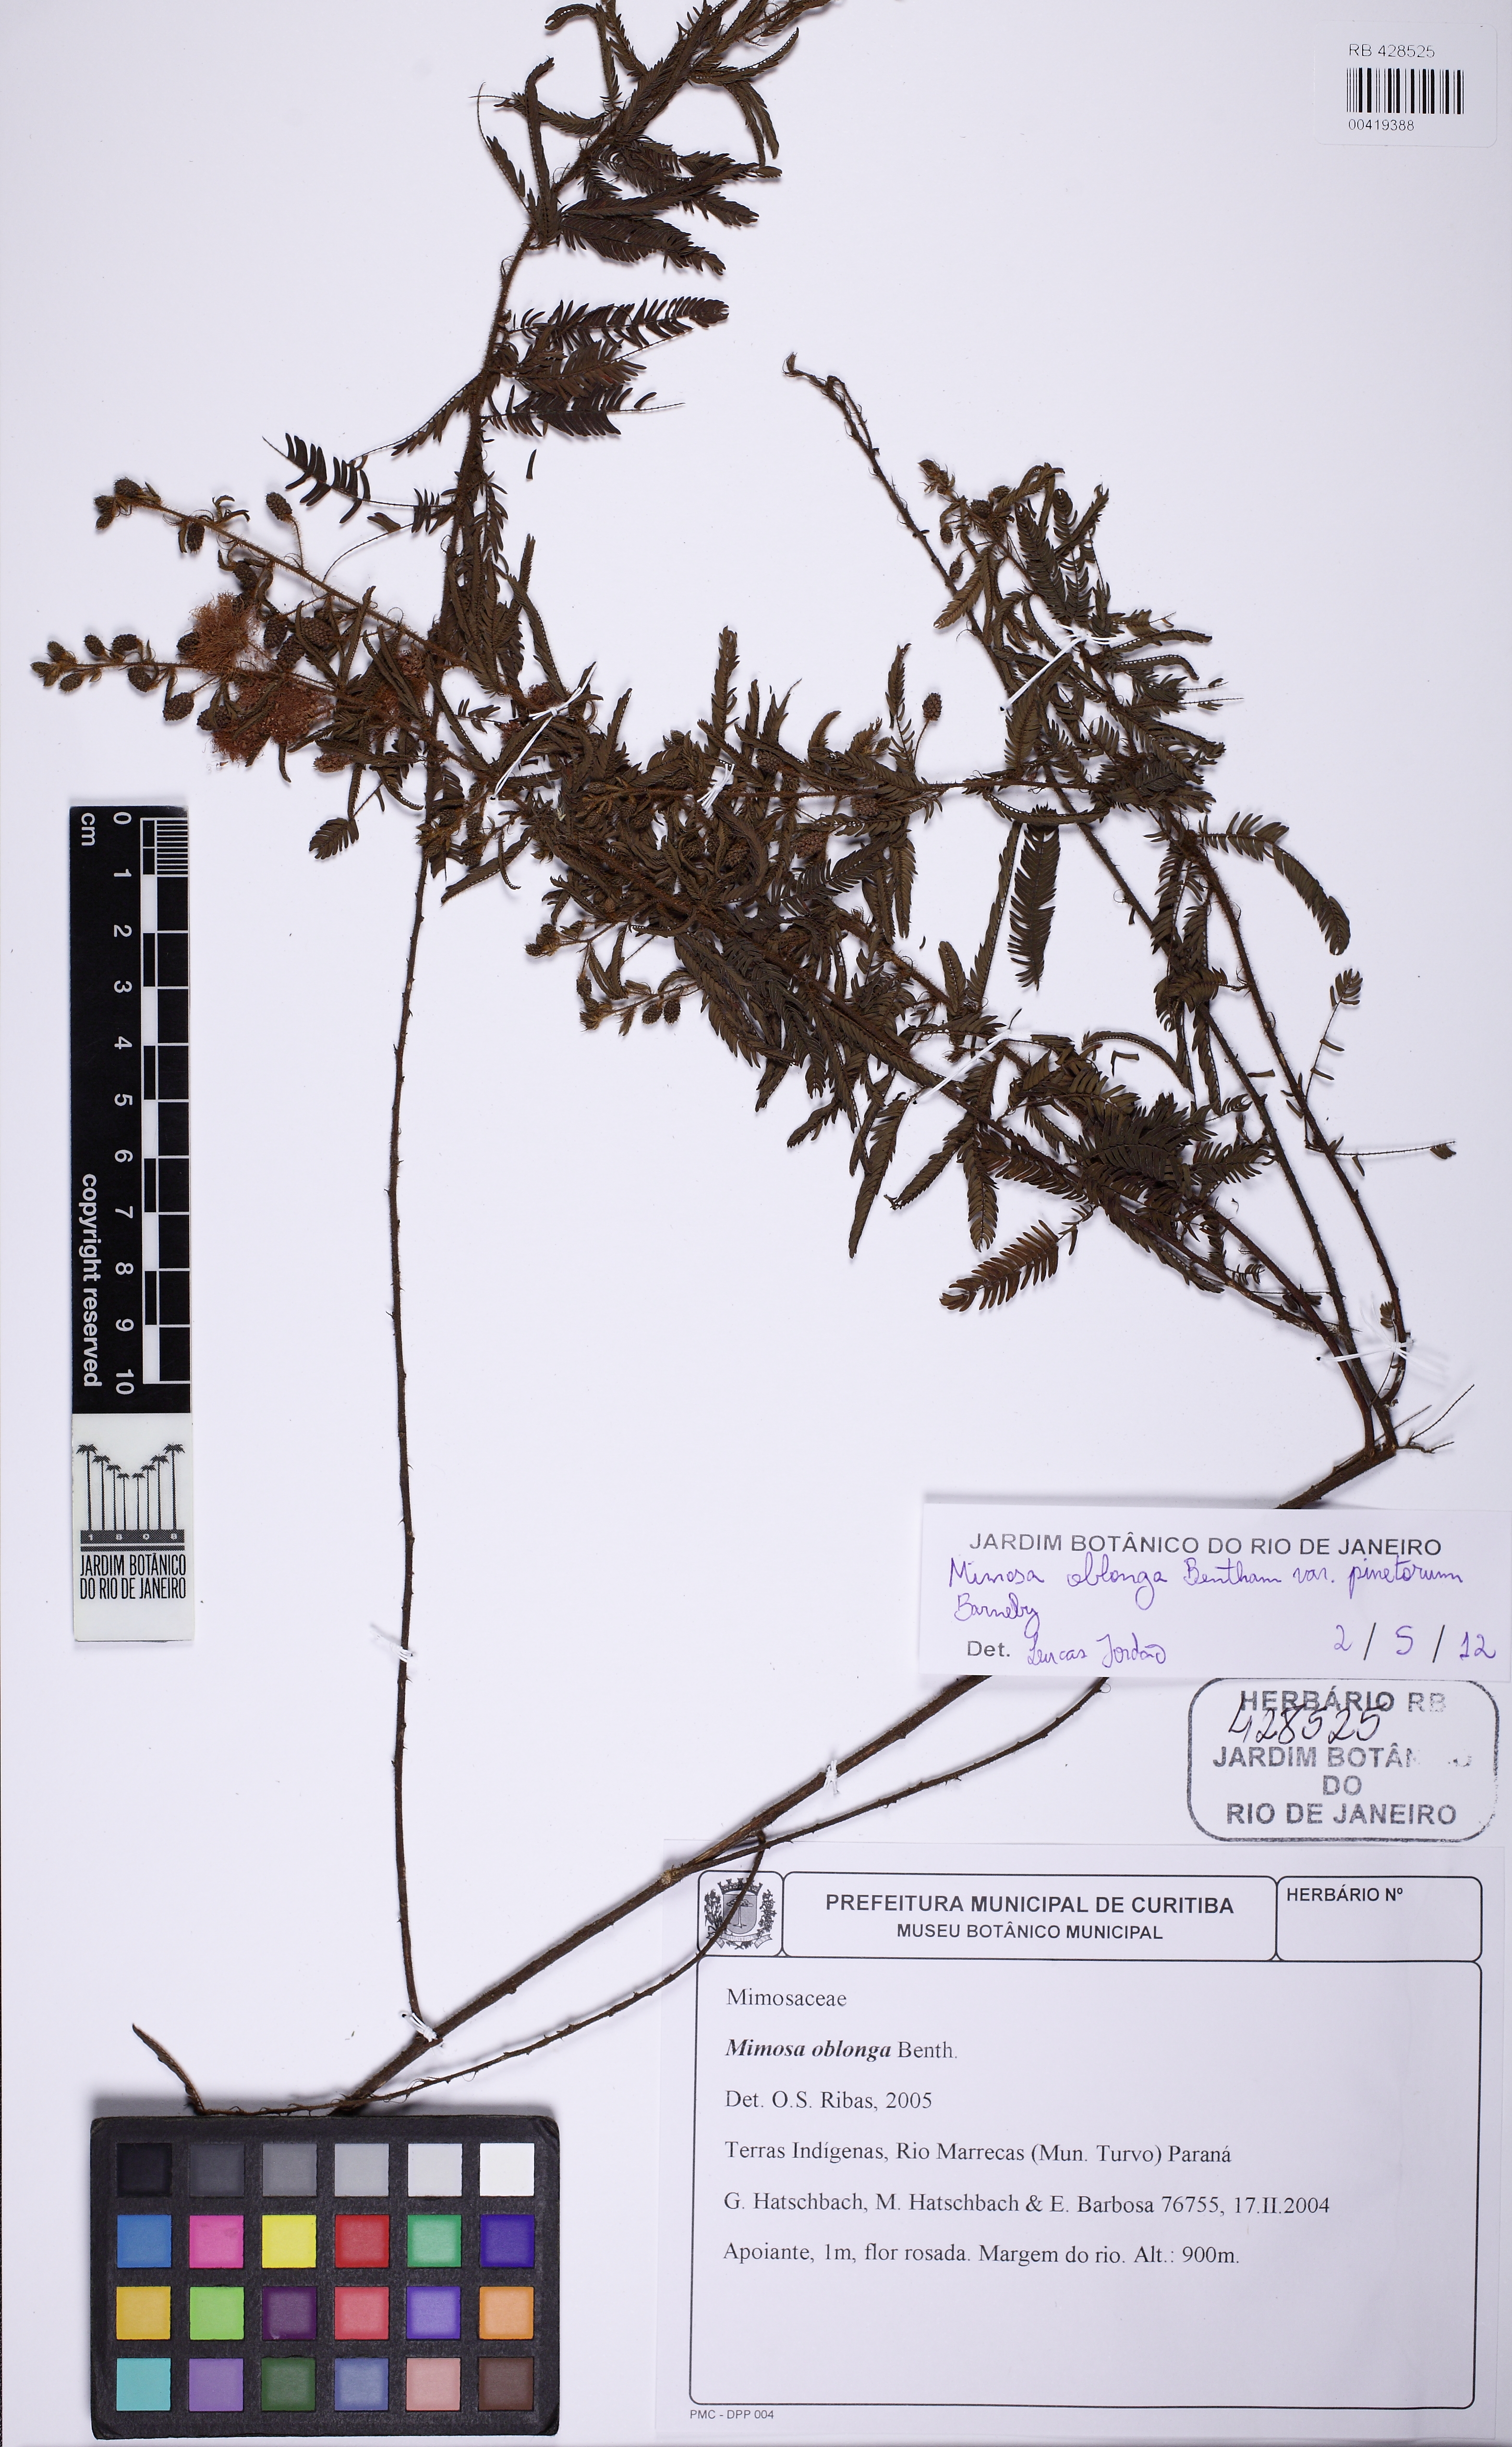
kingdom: Plantae
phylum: Tracheophyta
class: Magnoliopsida
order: Fabales
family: Fabaceae
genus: Mimosa
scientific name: Mimosa oblonga
